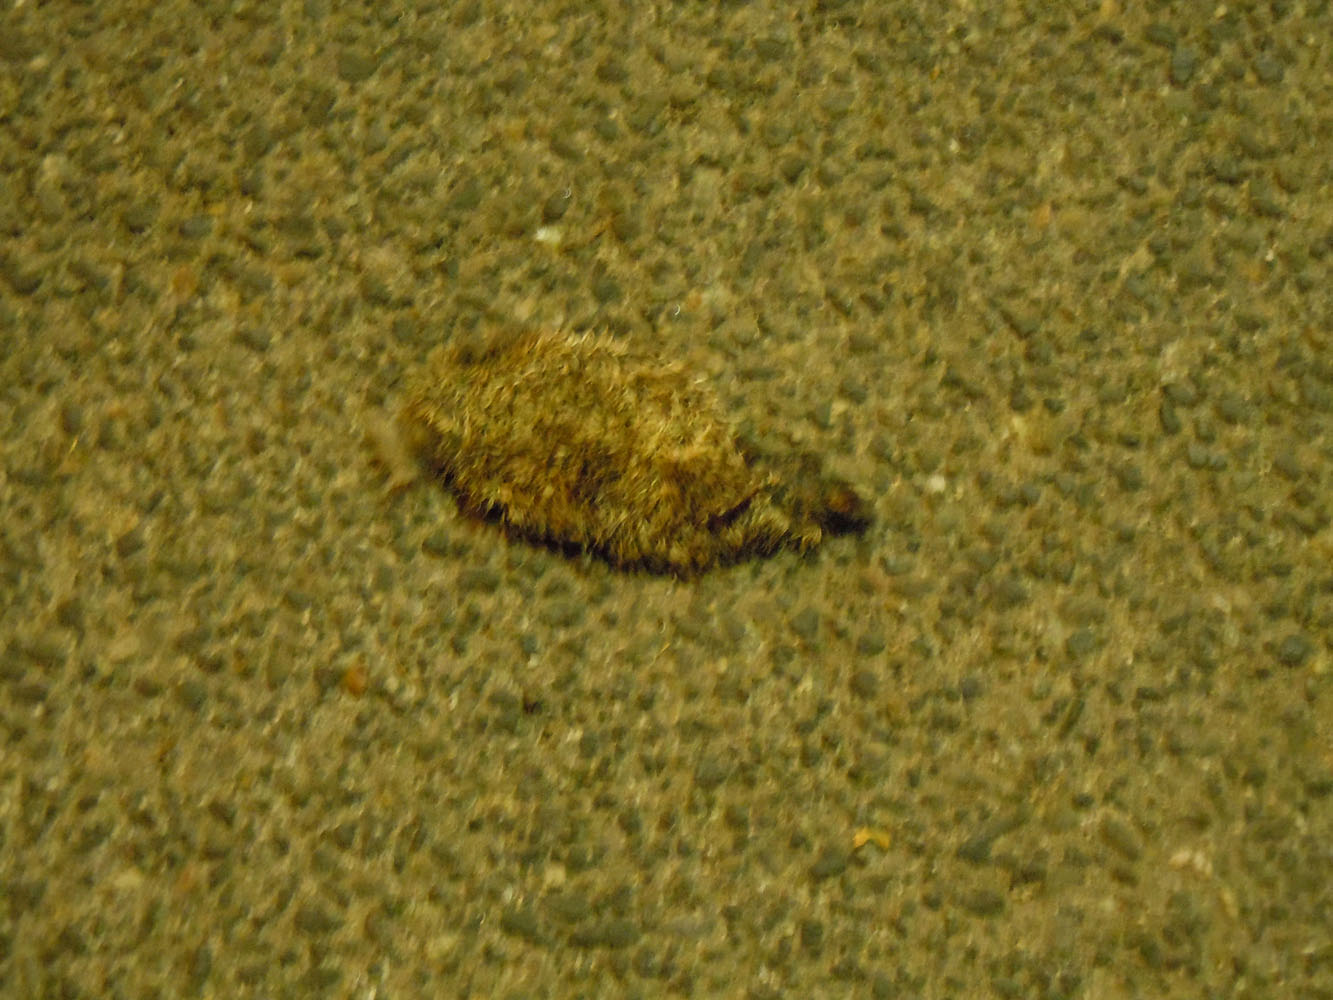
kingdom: Animalia
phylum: Chordata
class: Mammalia
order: Erinaceomorpha
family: Erinaceidae
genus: Erinaceus
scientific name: Erinaceus
